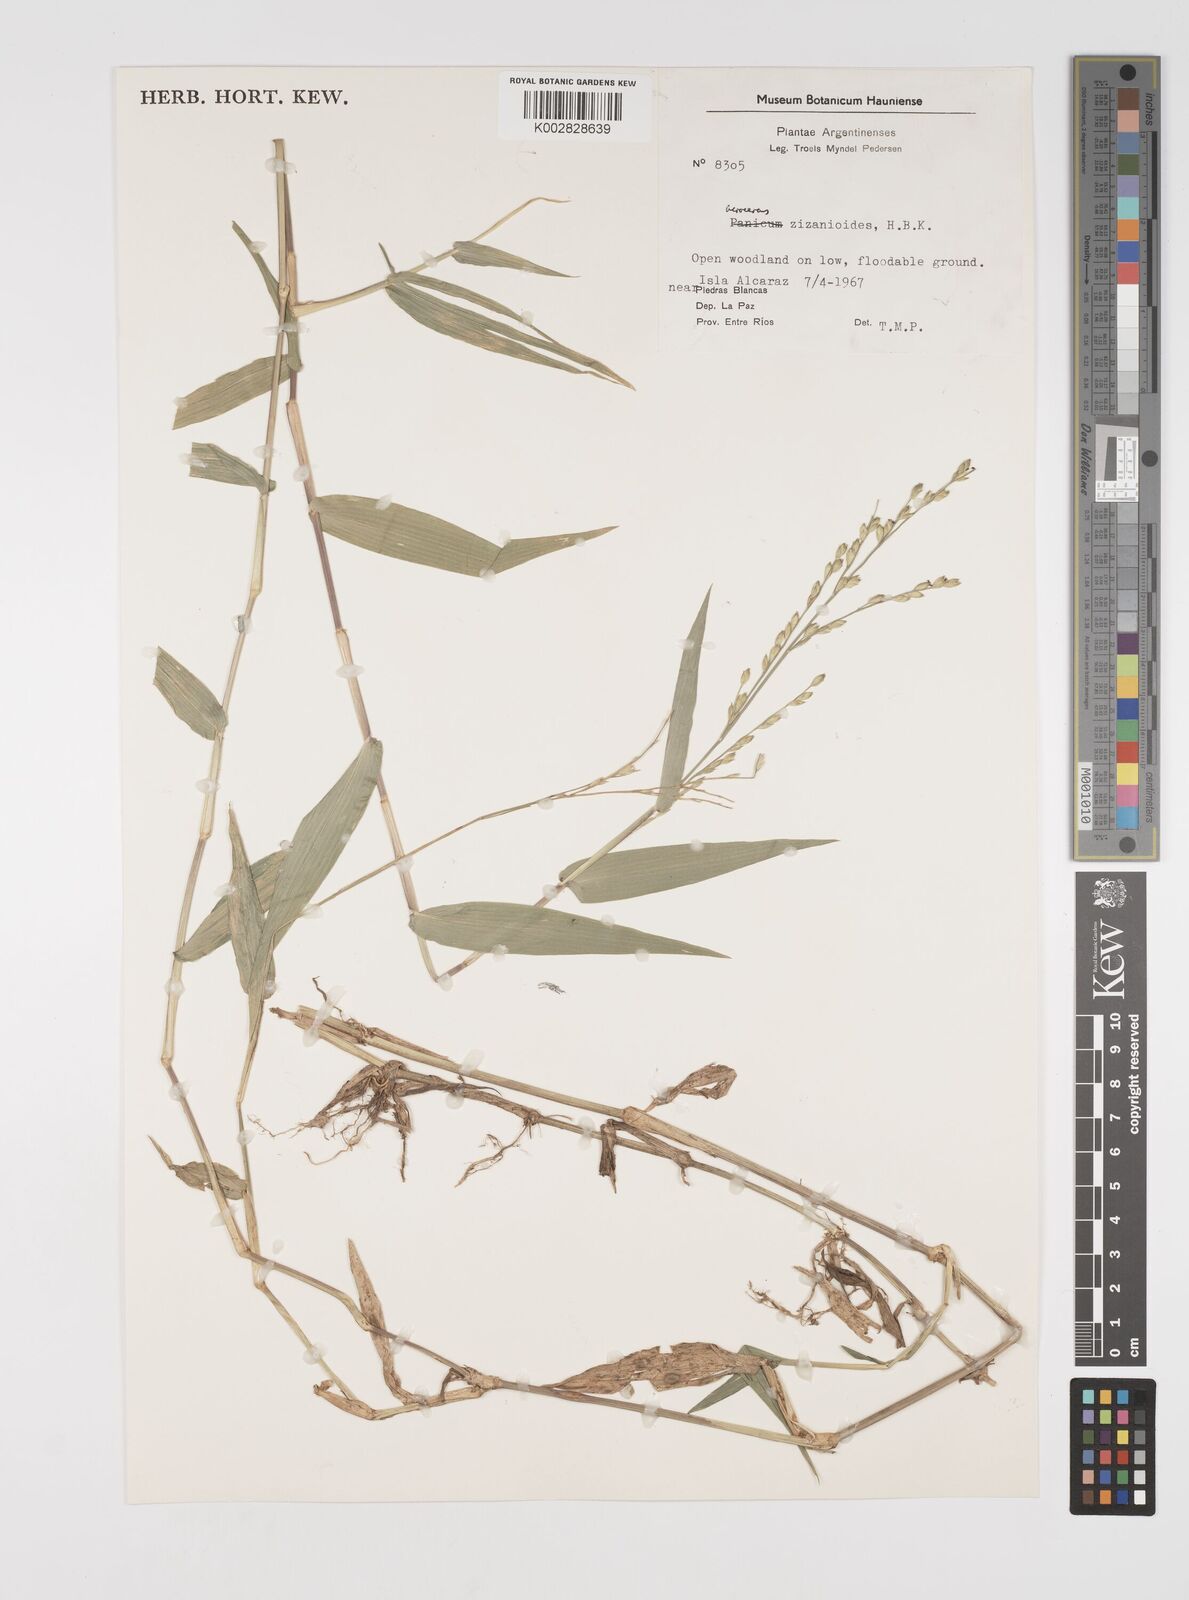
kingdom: Plantae
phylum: Tracheophyta
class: Liliopsida
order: Poales
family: Poaceae
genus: Acroceras
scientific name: Acroceras zizanioides
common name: Oat grass
